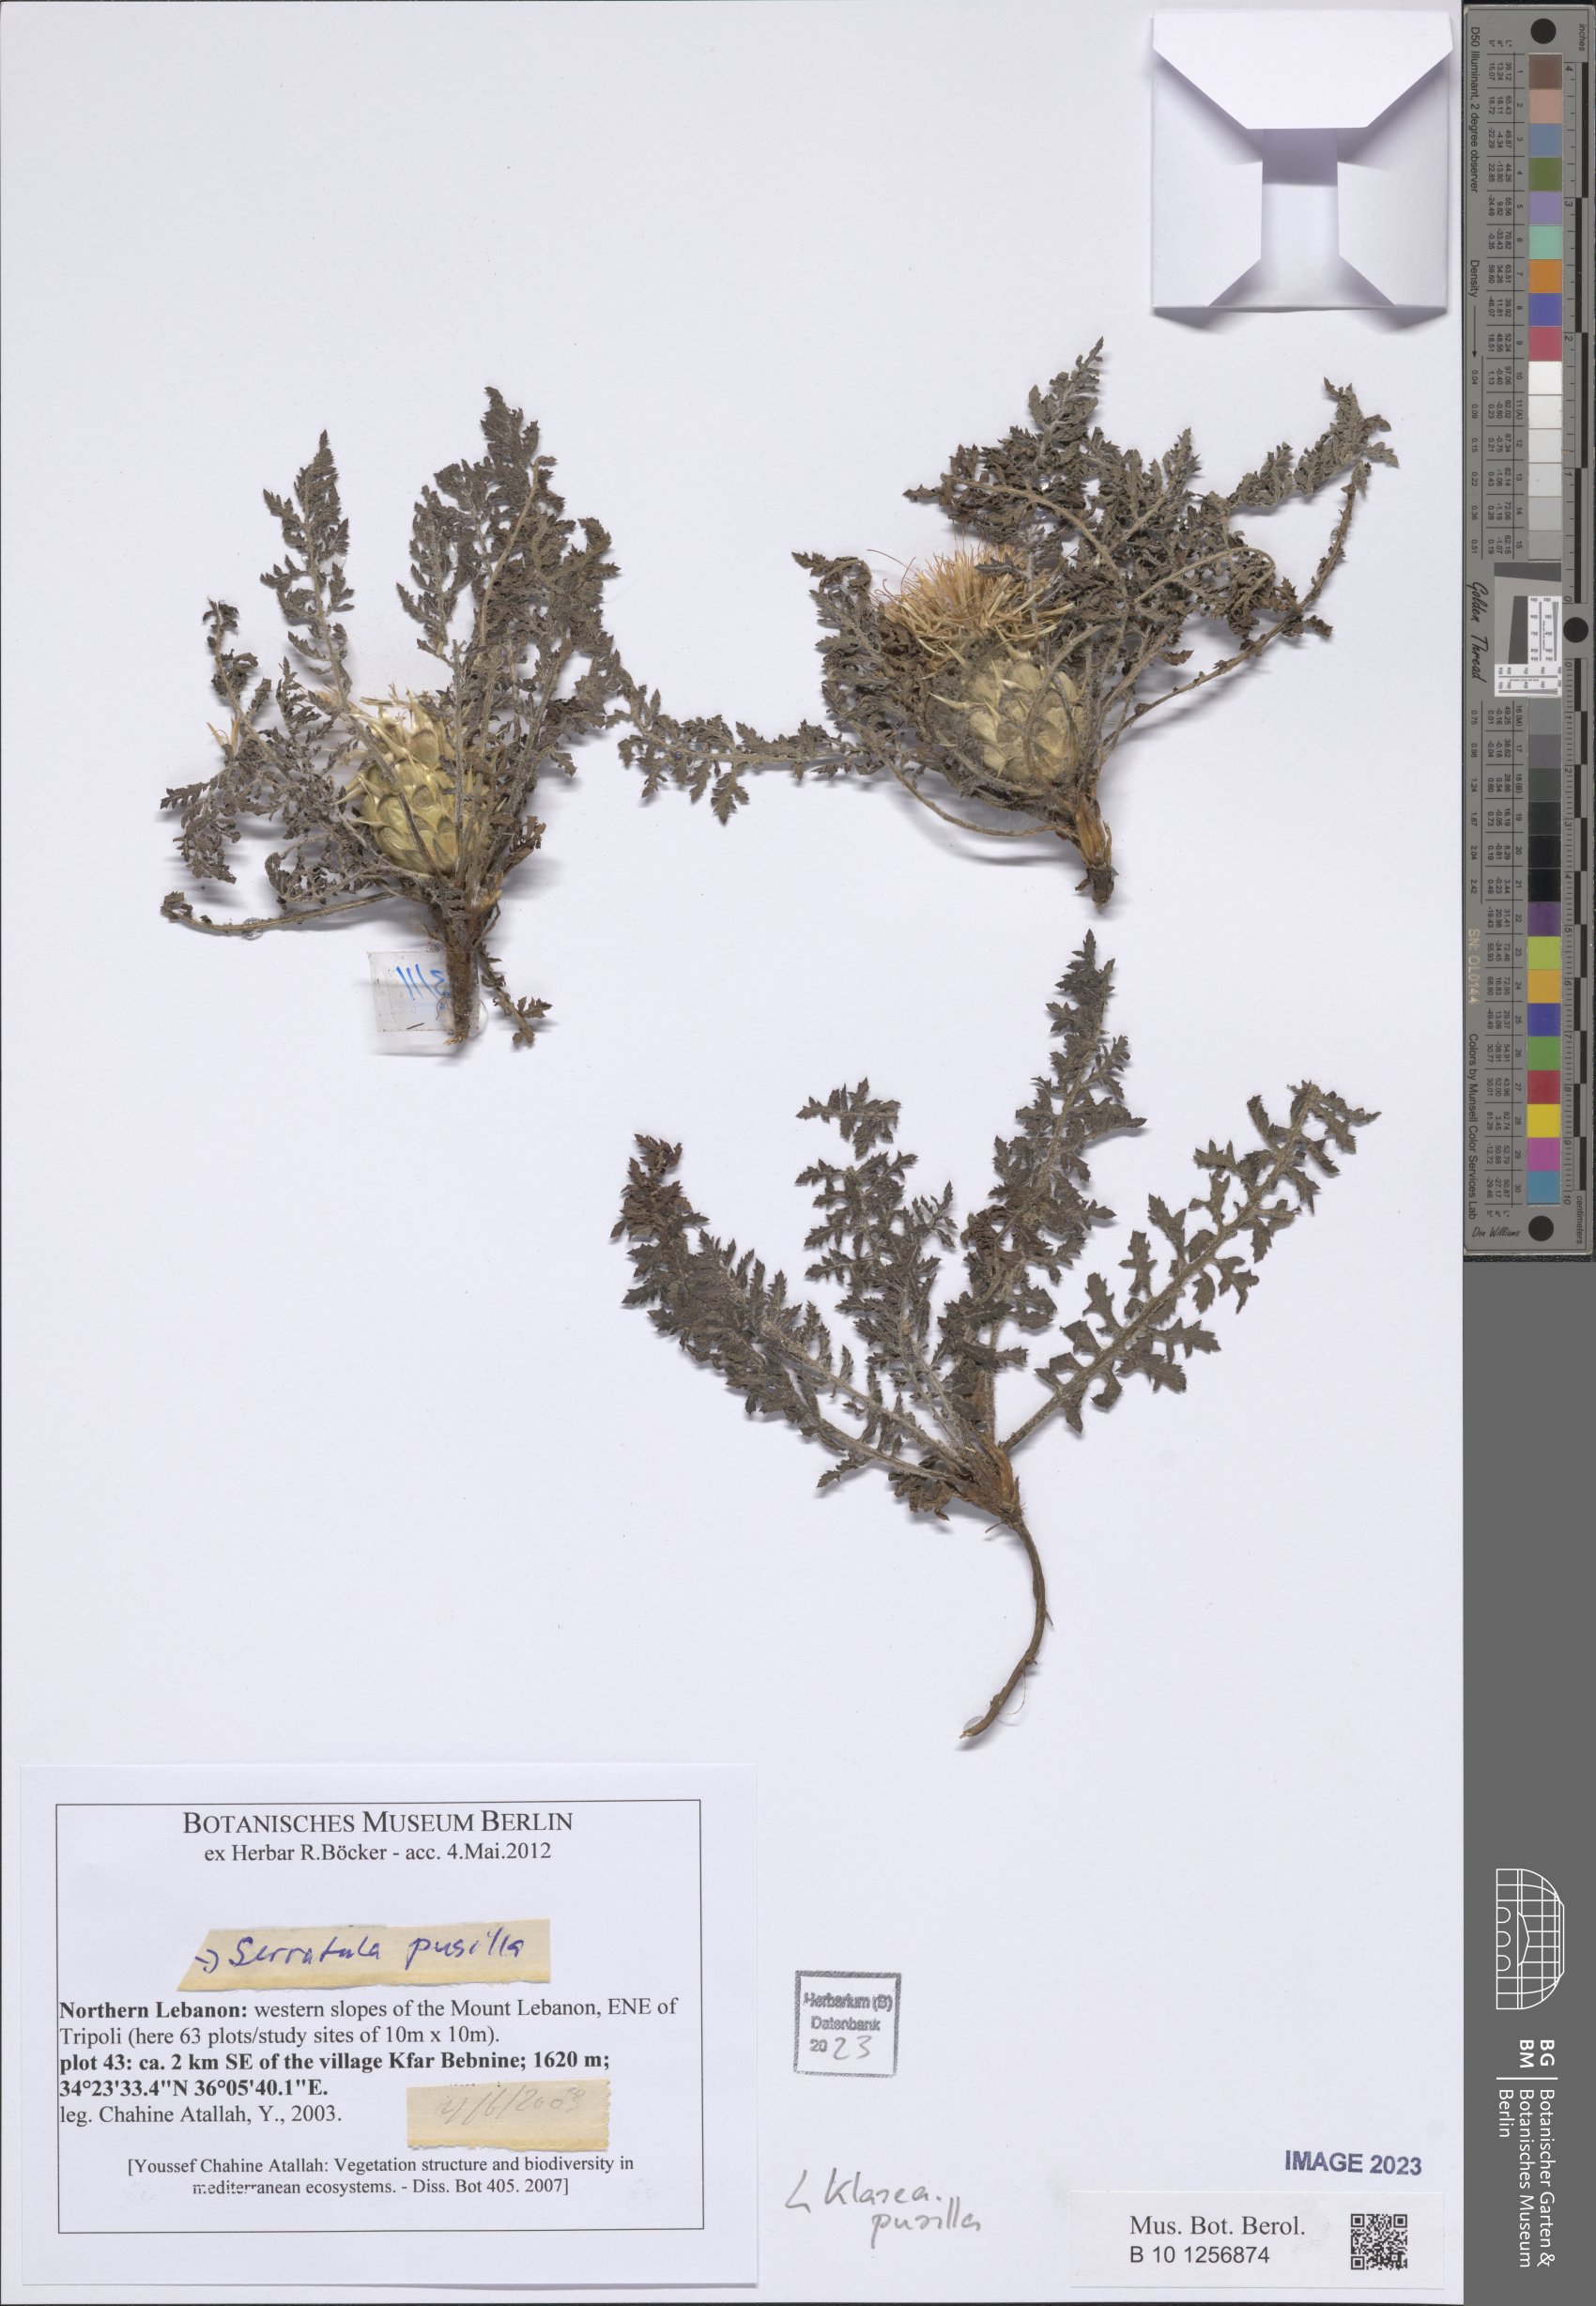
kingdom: Plantae
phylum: Tracheophyta
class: Magnoliopsida
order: Asterales
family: Asteraceae
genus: Klasea
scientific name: Klasea pusilla
